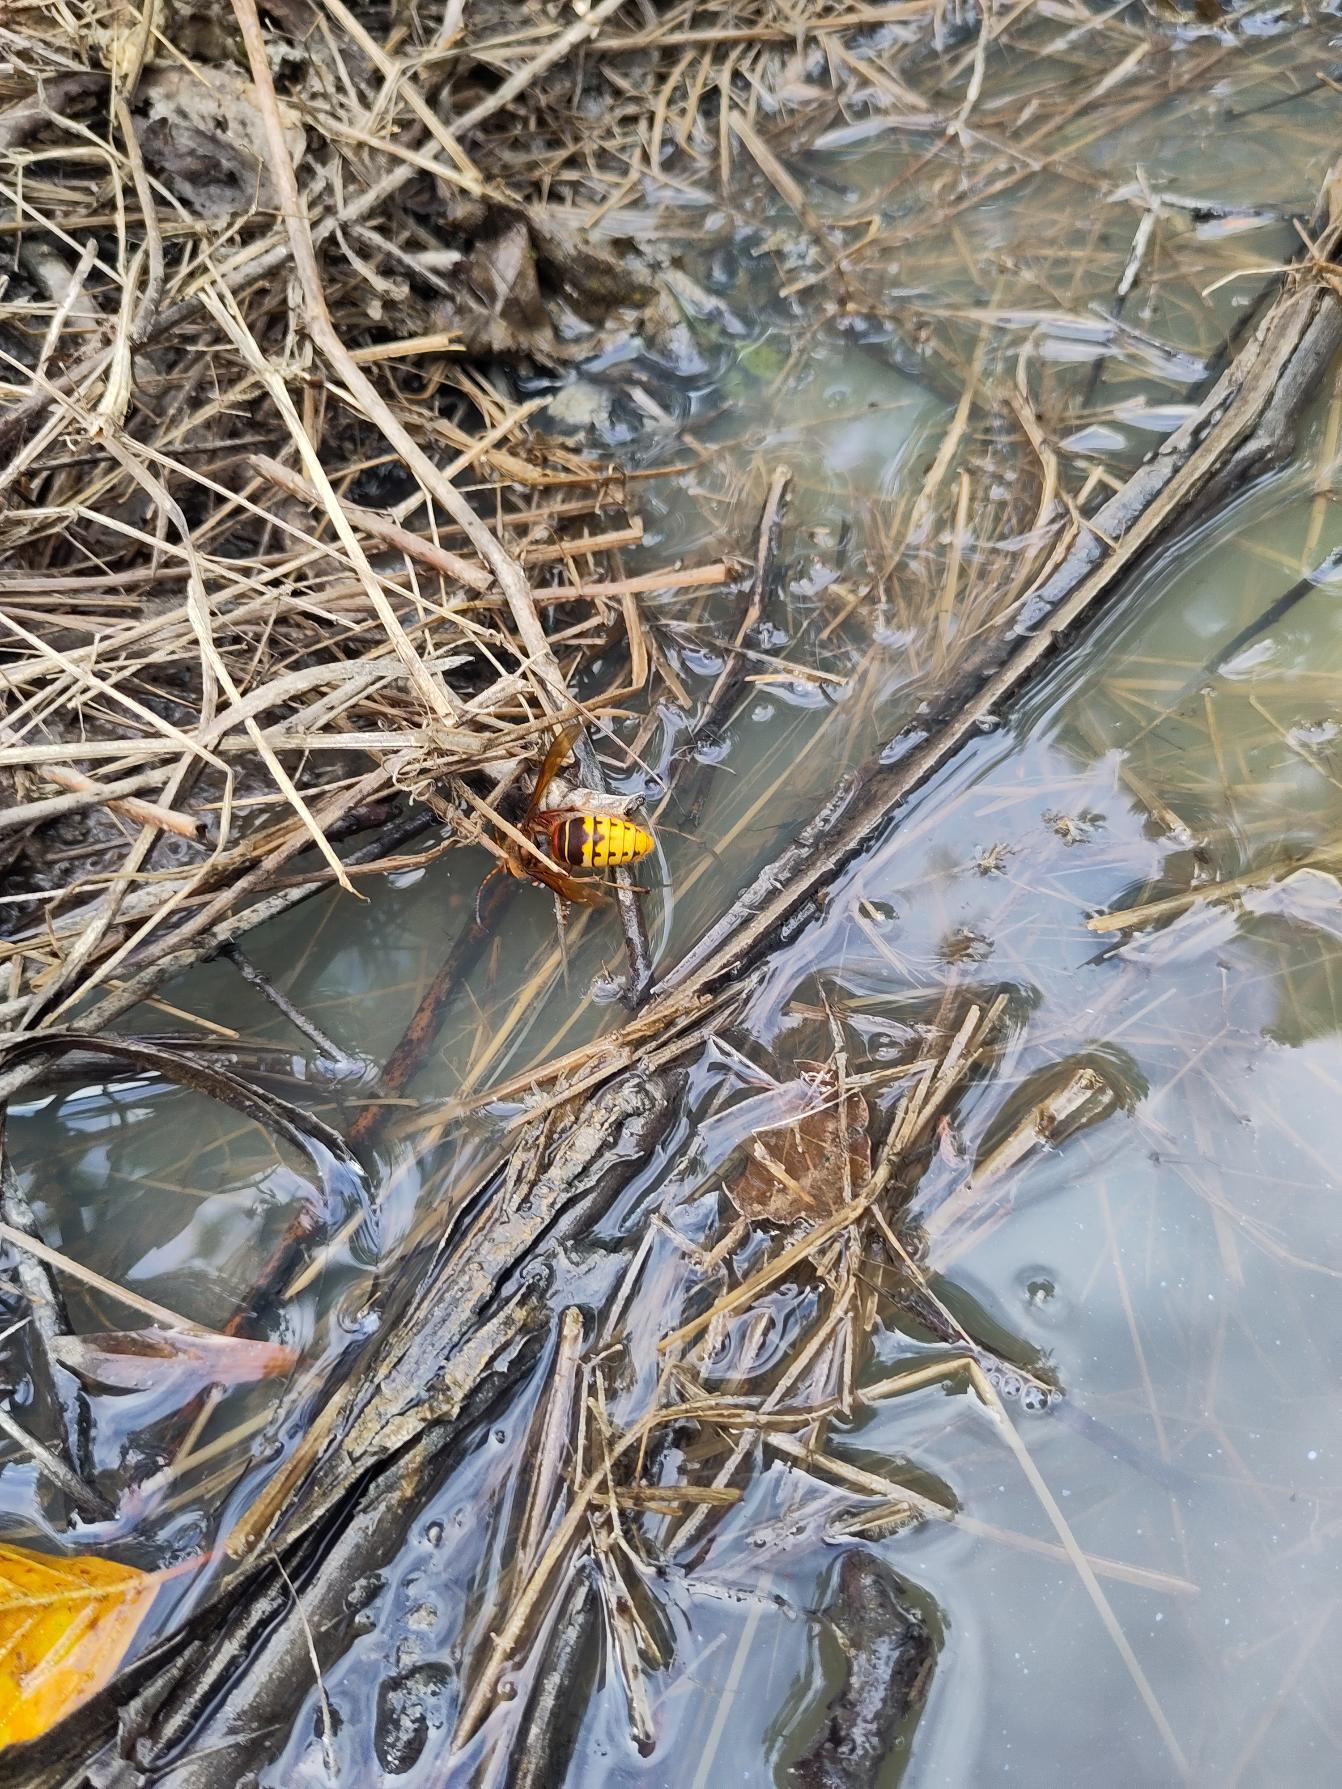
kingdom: Animalia
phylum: Arthropoda
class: Insecta
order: Hymenoptera
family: Vespidae
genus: Vespa
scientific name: Vespa crabro
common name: Stor gedehams
